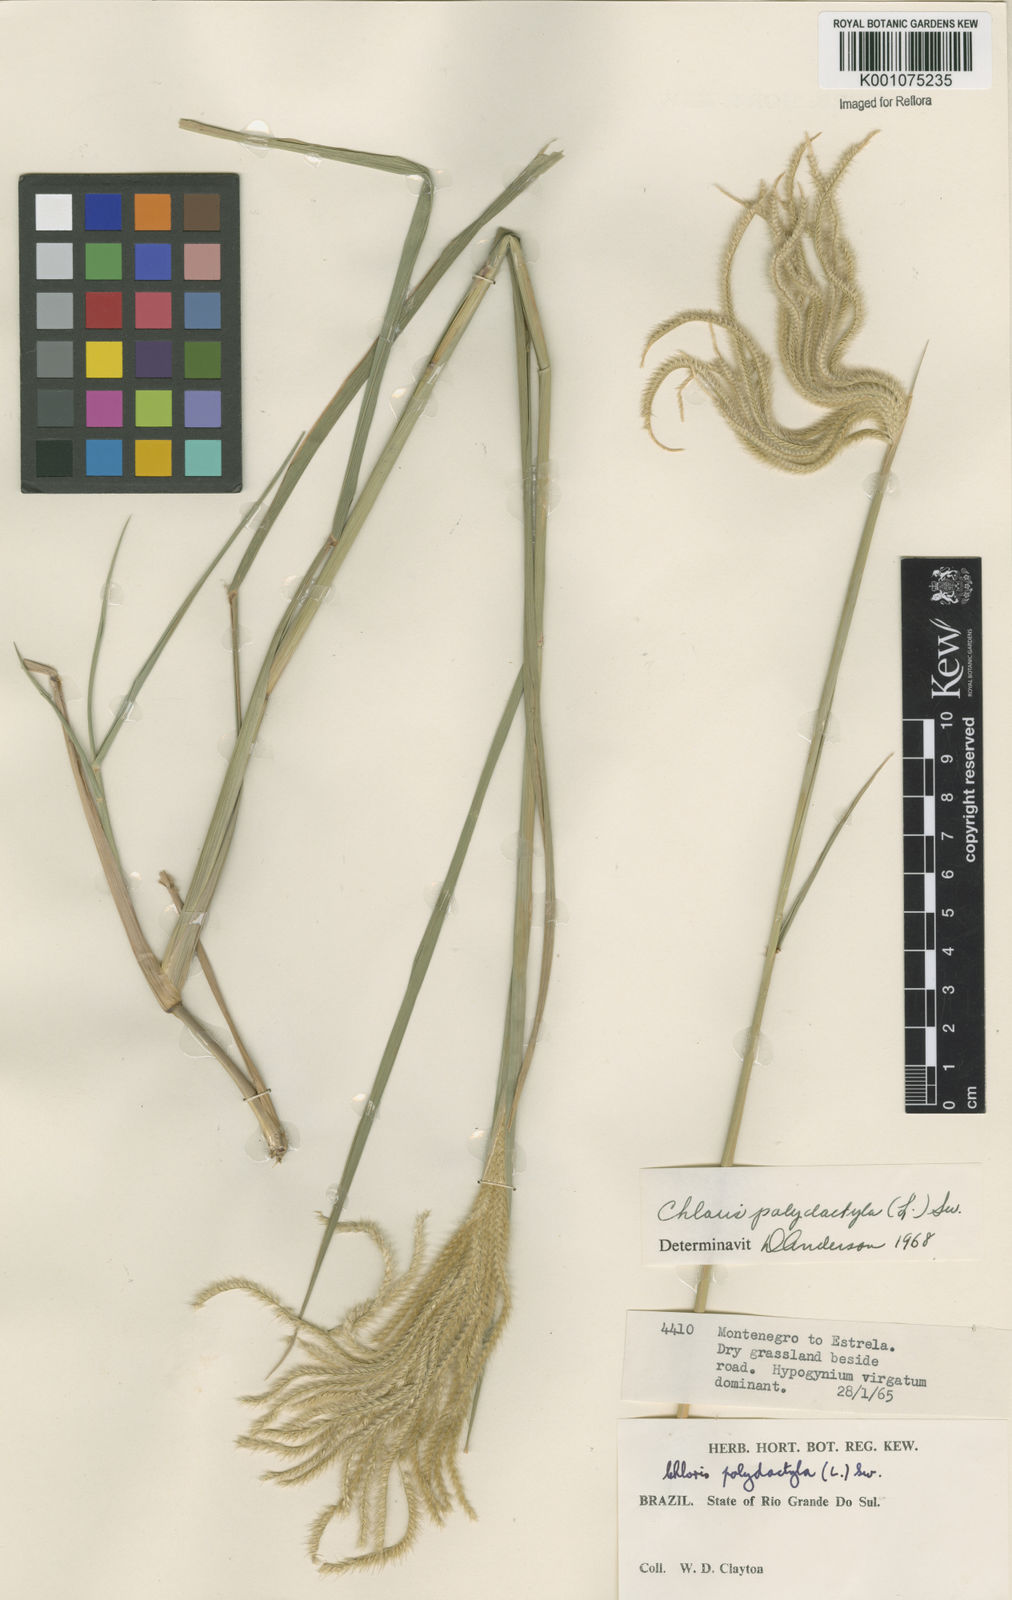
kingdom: Plantae
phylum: Tracheophyta
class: Liliopsida
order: Poales
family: Poaceae
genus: Stapfochloa
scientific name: Stapfochloa elata
